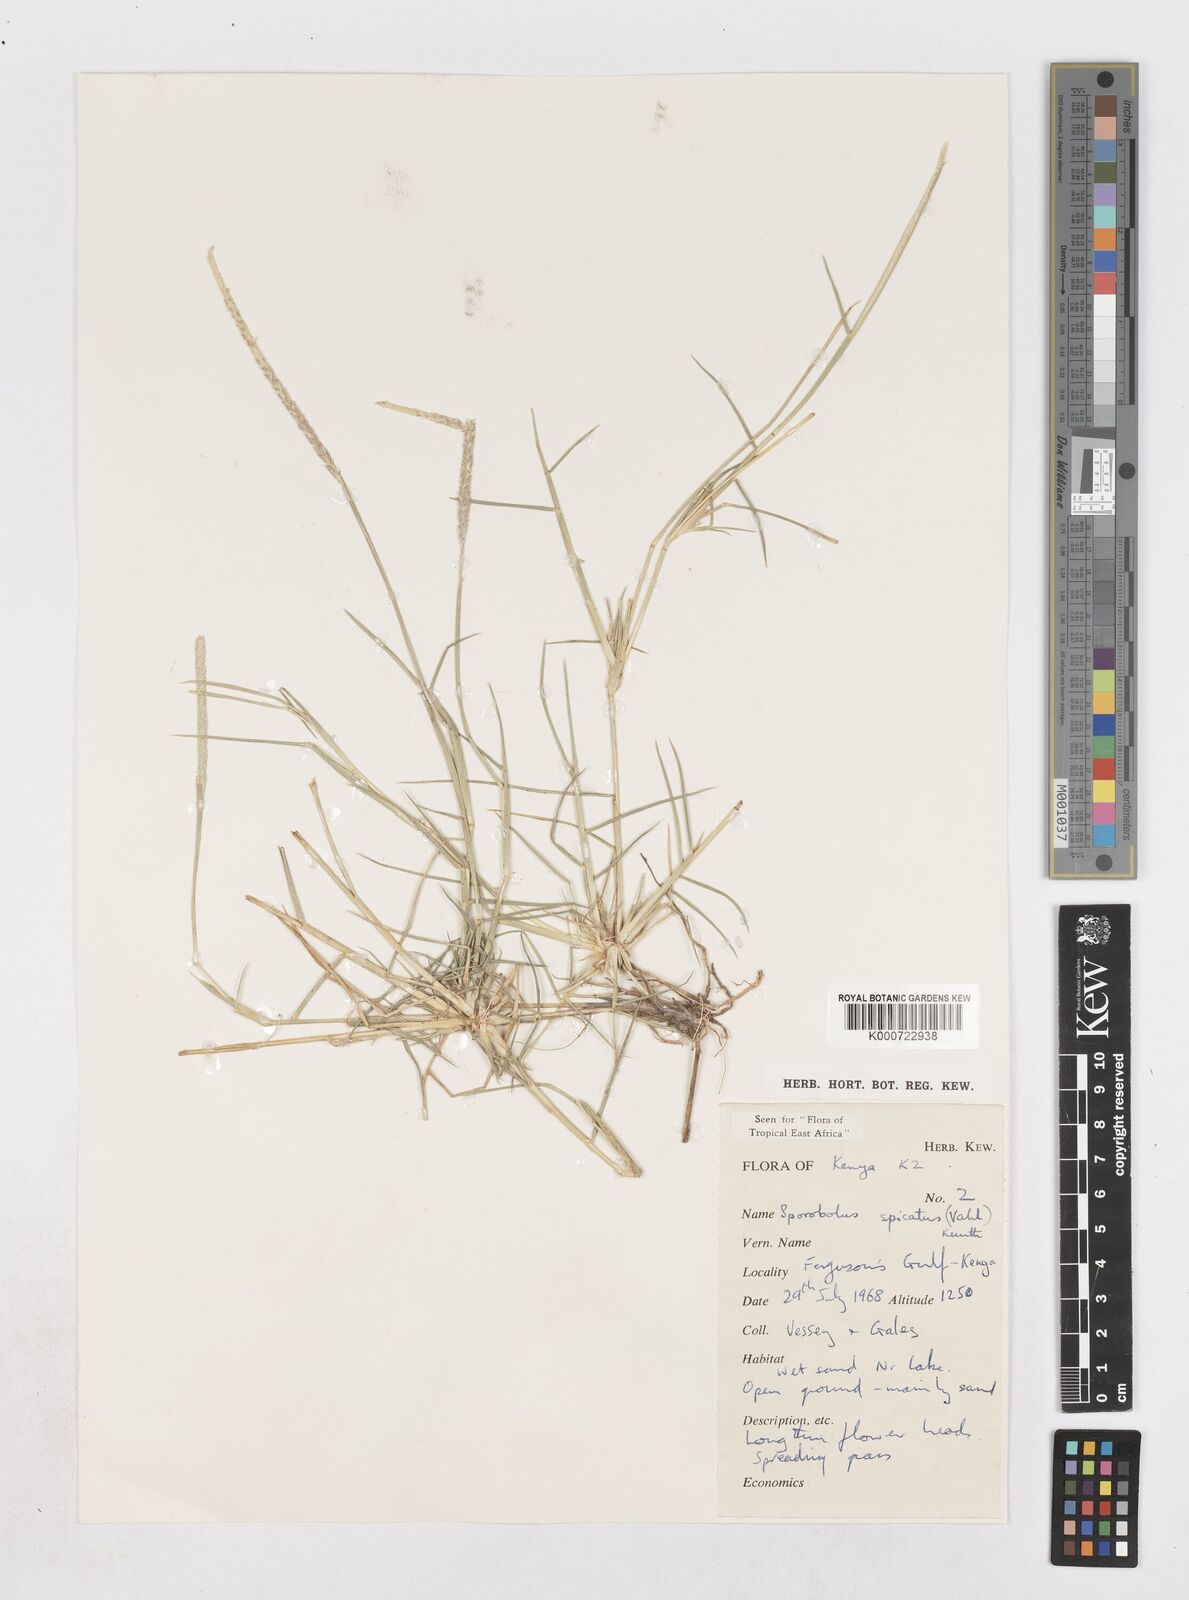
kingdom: Plantae
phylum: Tracheophyta
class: Liliopsida
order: Poales
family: Poaceae
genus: Sporobolus
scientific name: Sporobolus spicatus
